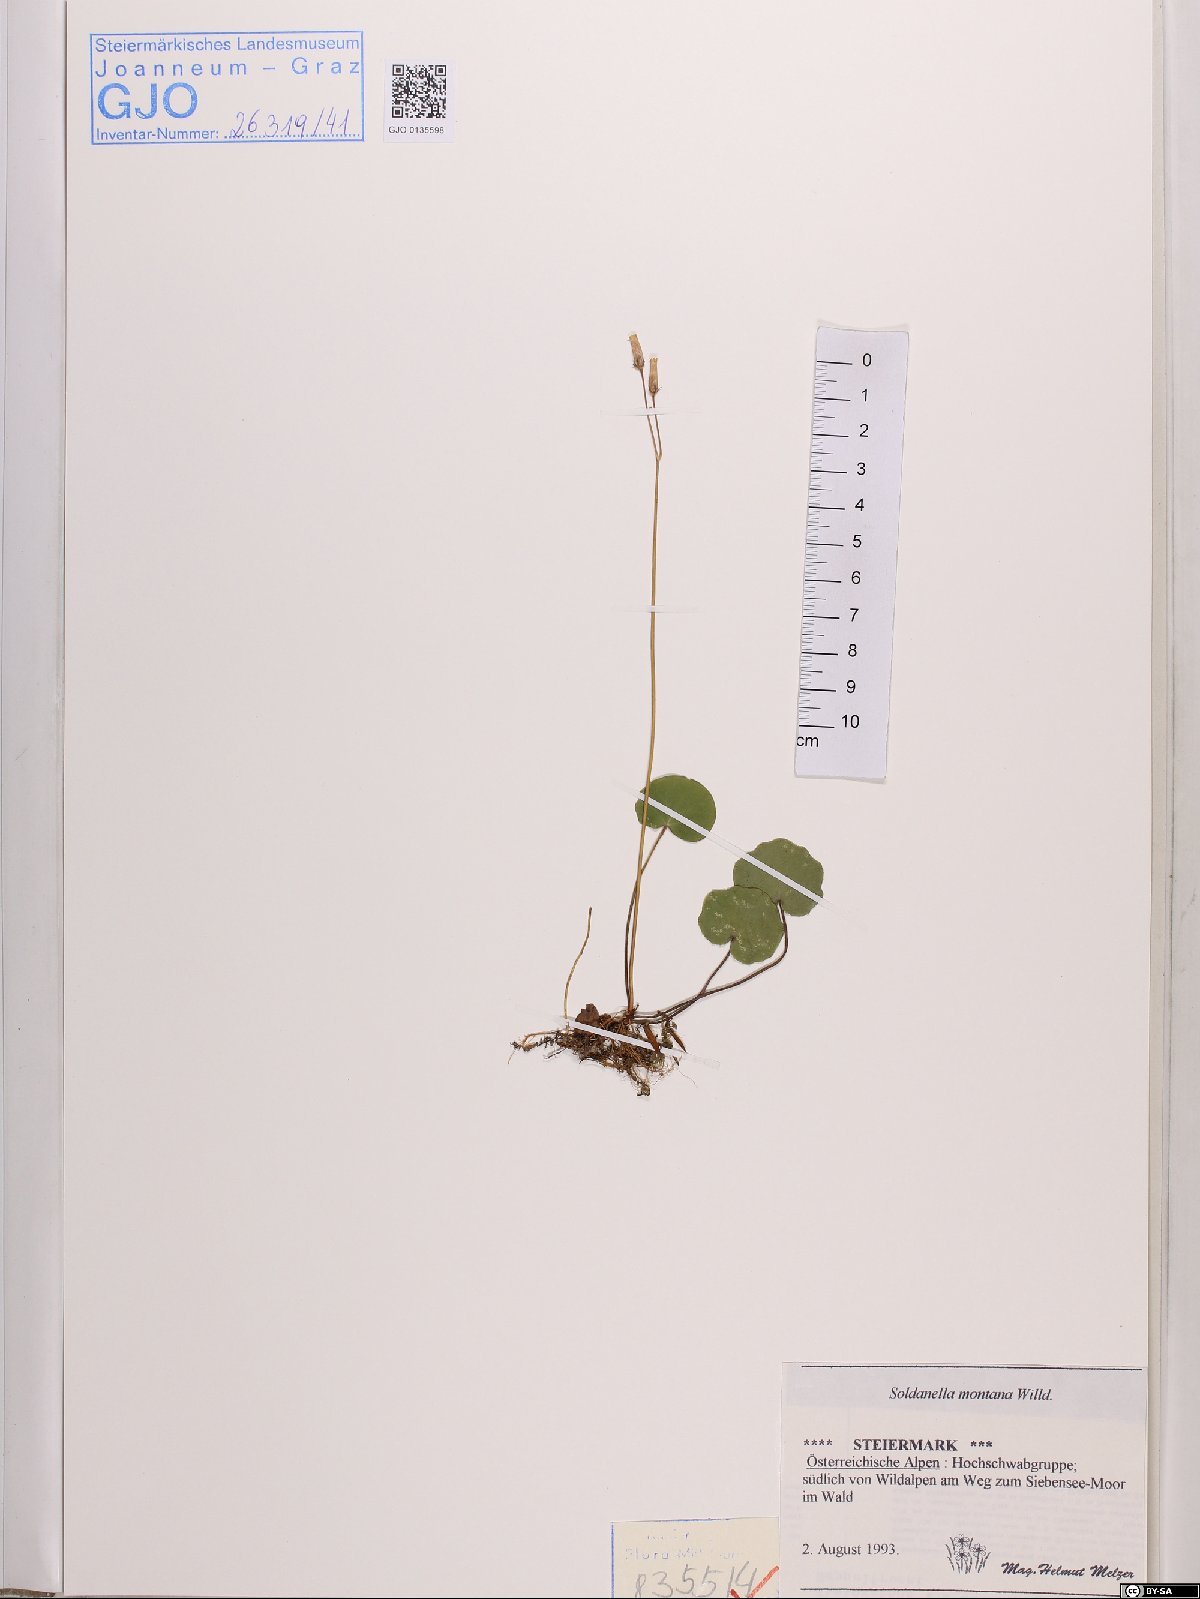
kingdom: Plantae
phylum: Tracheophyta
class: Magnoliopsida
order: Ericales
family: Primulaceae
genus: Soldanella
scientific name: Soldanella montana
